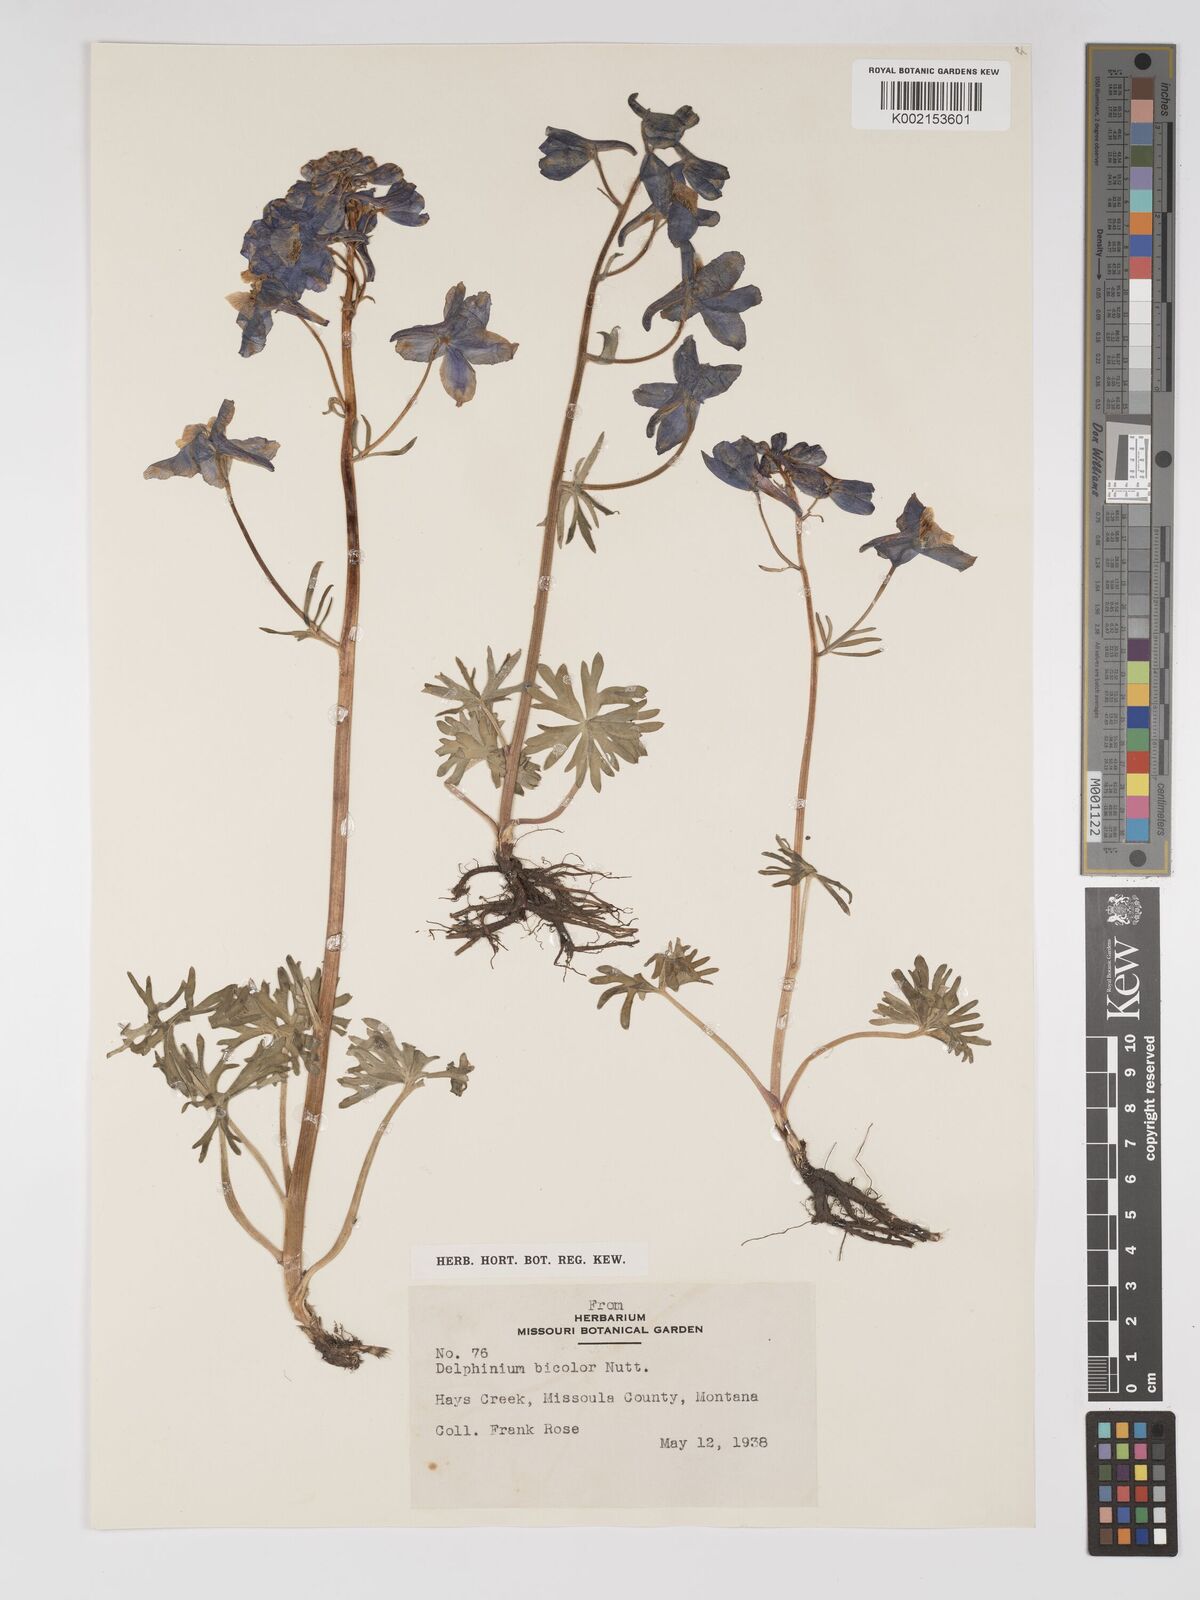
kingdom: Plantae
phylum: Tracheophyta
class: Magnoliopsida
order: Ranunculales
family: Ranunculaceae
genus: Delphinium
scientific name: Delphinium bicolor
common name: Low larkspur
